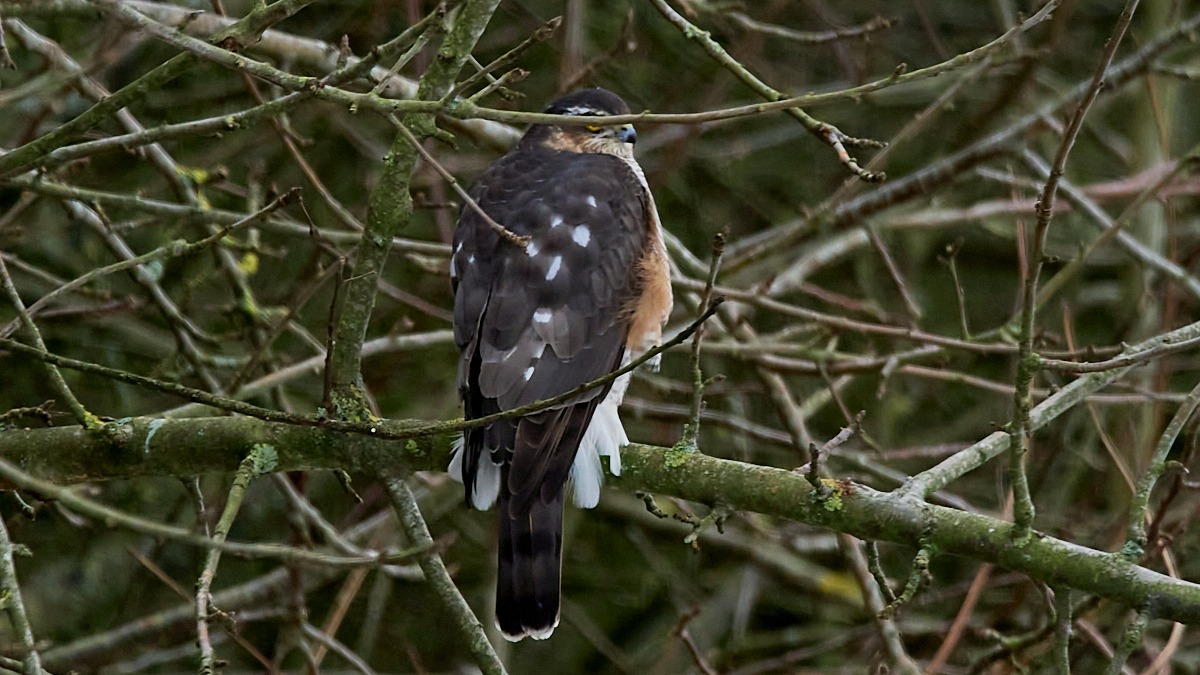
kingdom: Animalia
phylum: Chordata
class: Aves
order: Accipitriformes
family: Accipitridae
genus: Accipiter
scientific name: Accipiter nisus
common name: Spurvehøg
